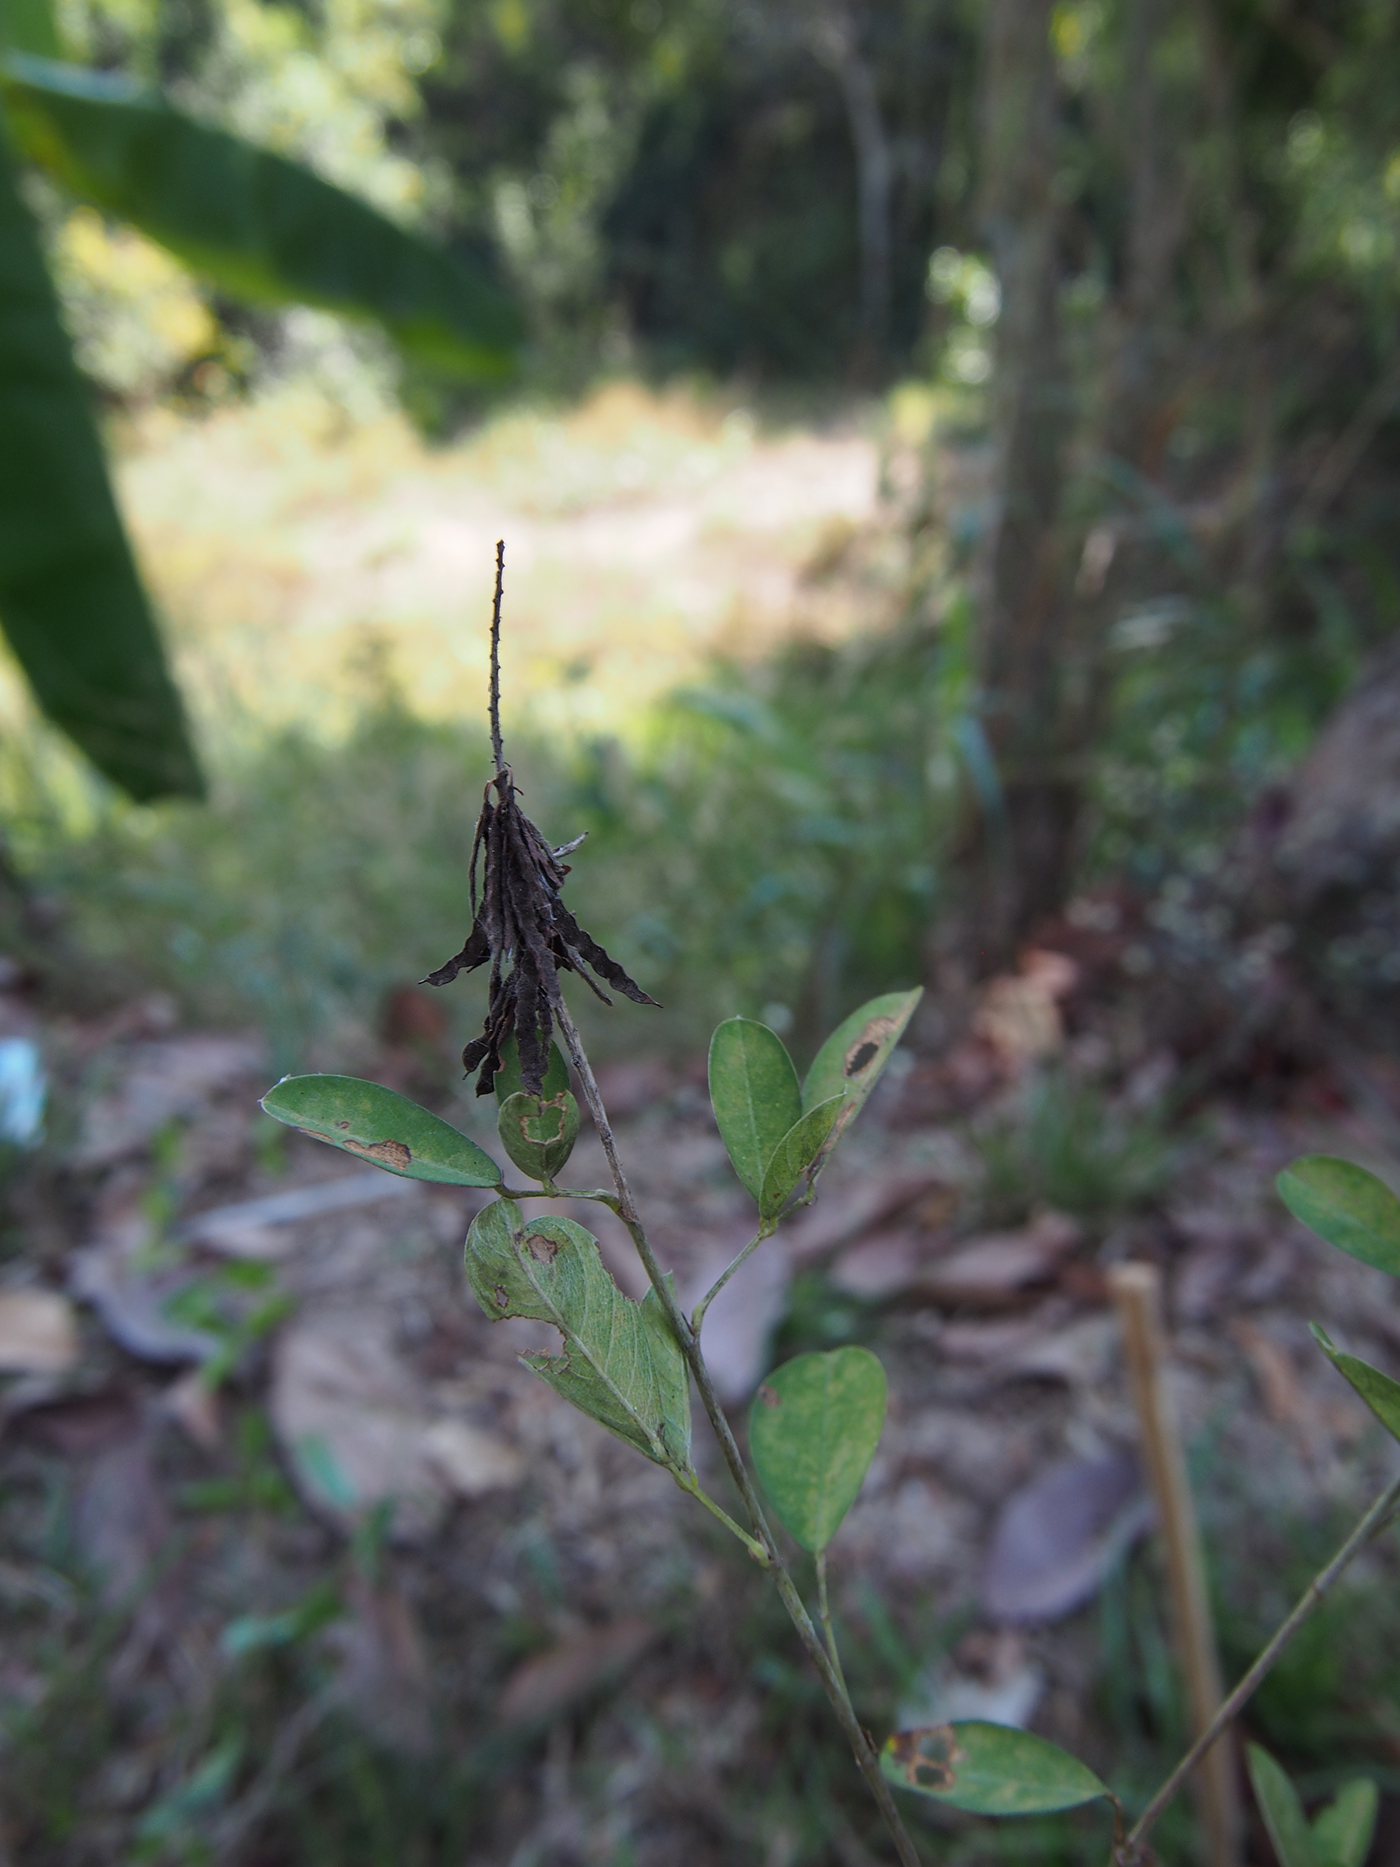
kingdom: Plantae
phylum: Tracheophyta
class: Magnoliopsida
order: Fabales
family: Fabaceae
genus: Grona
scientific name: Grona strigillosa
